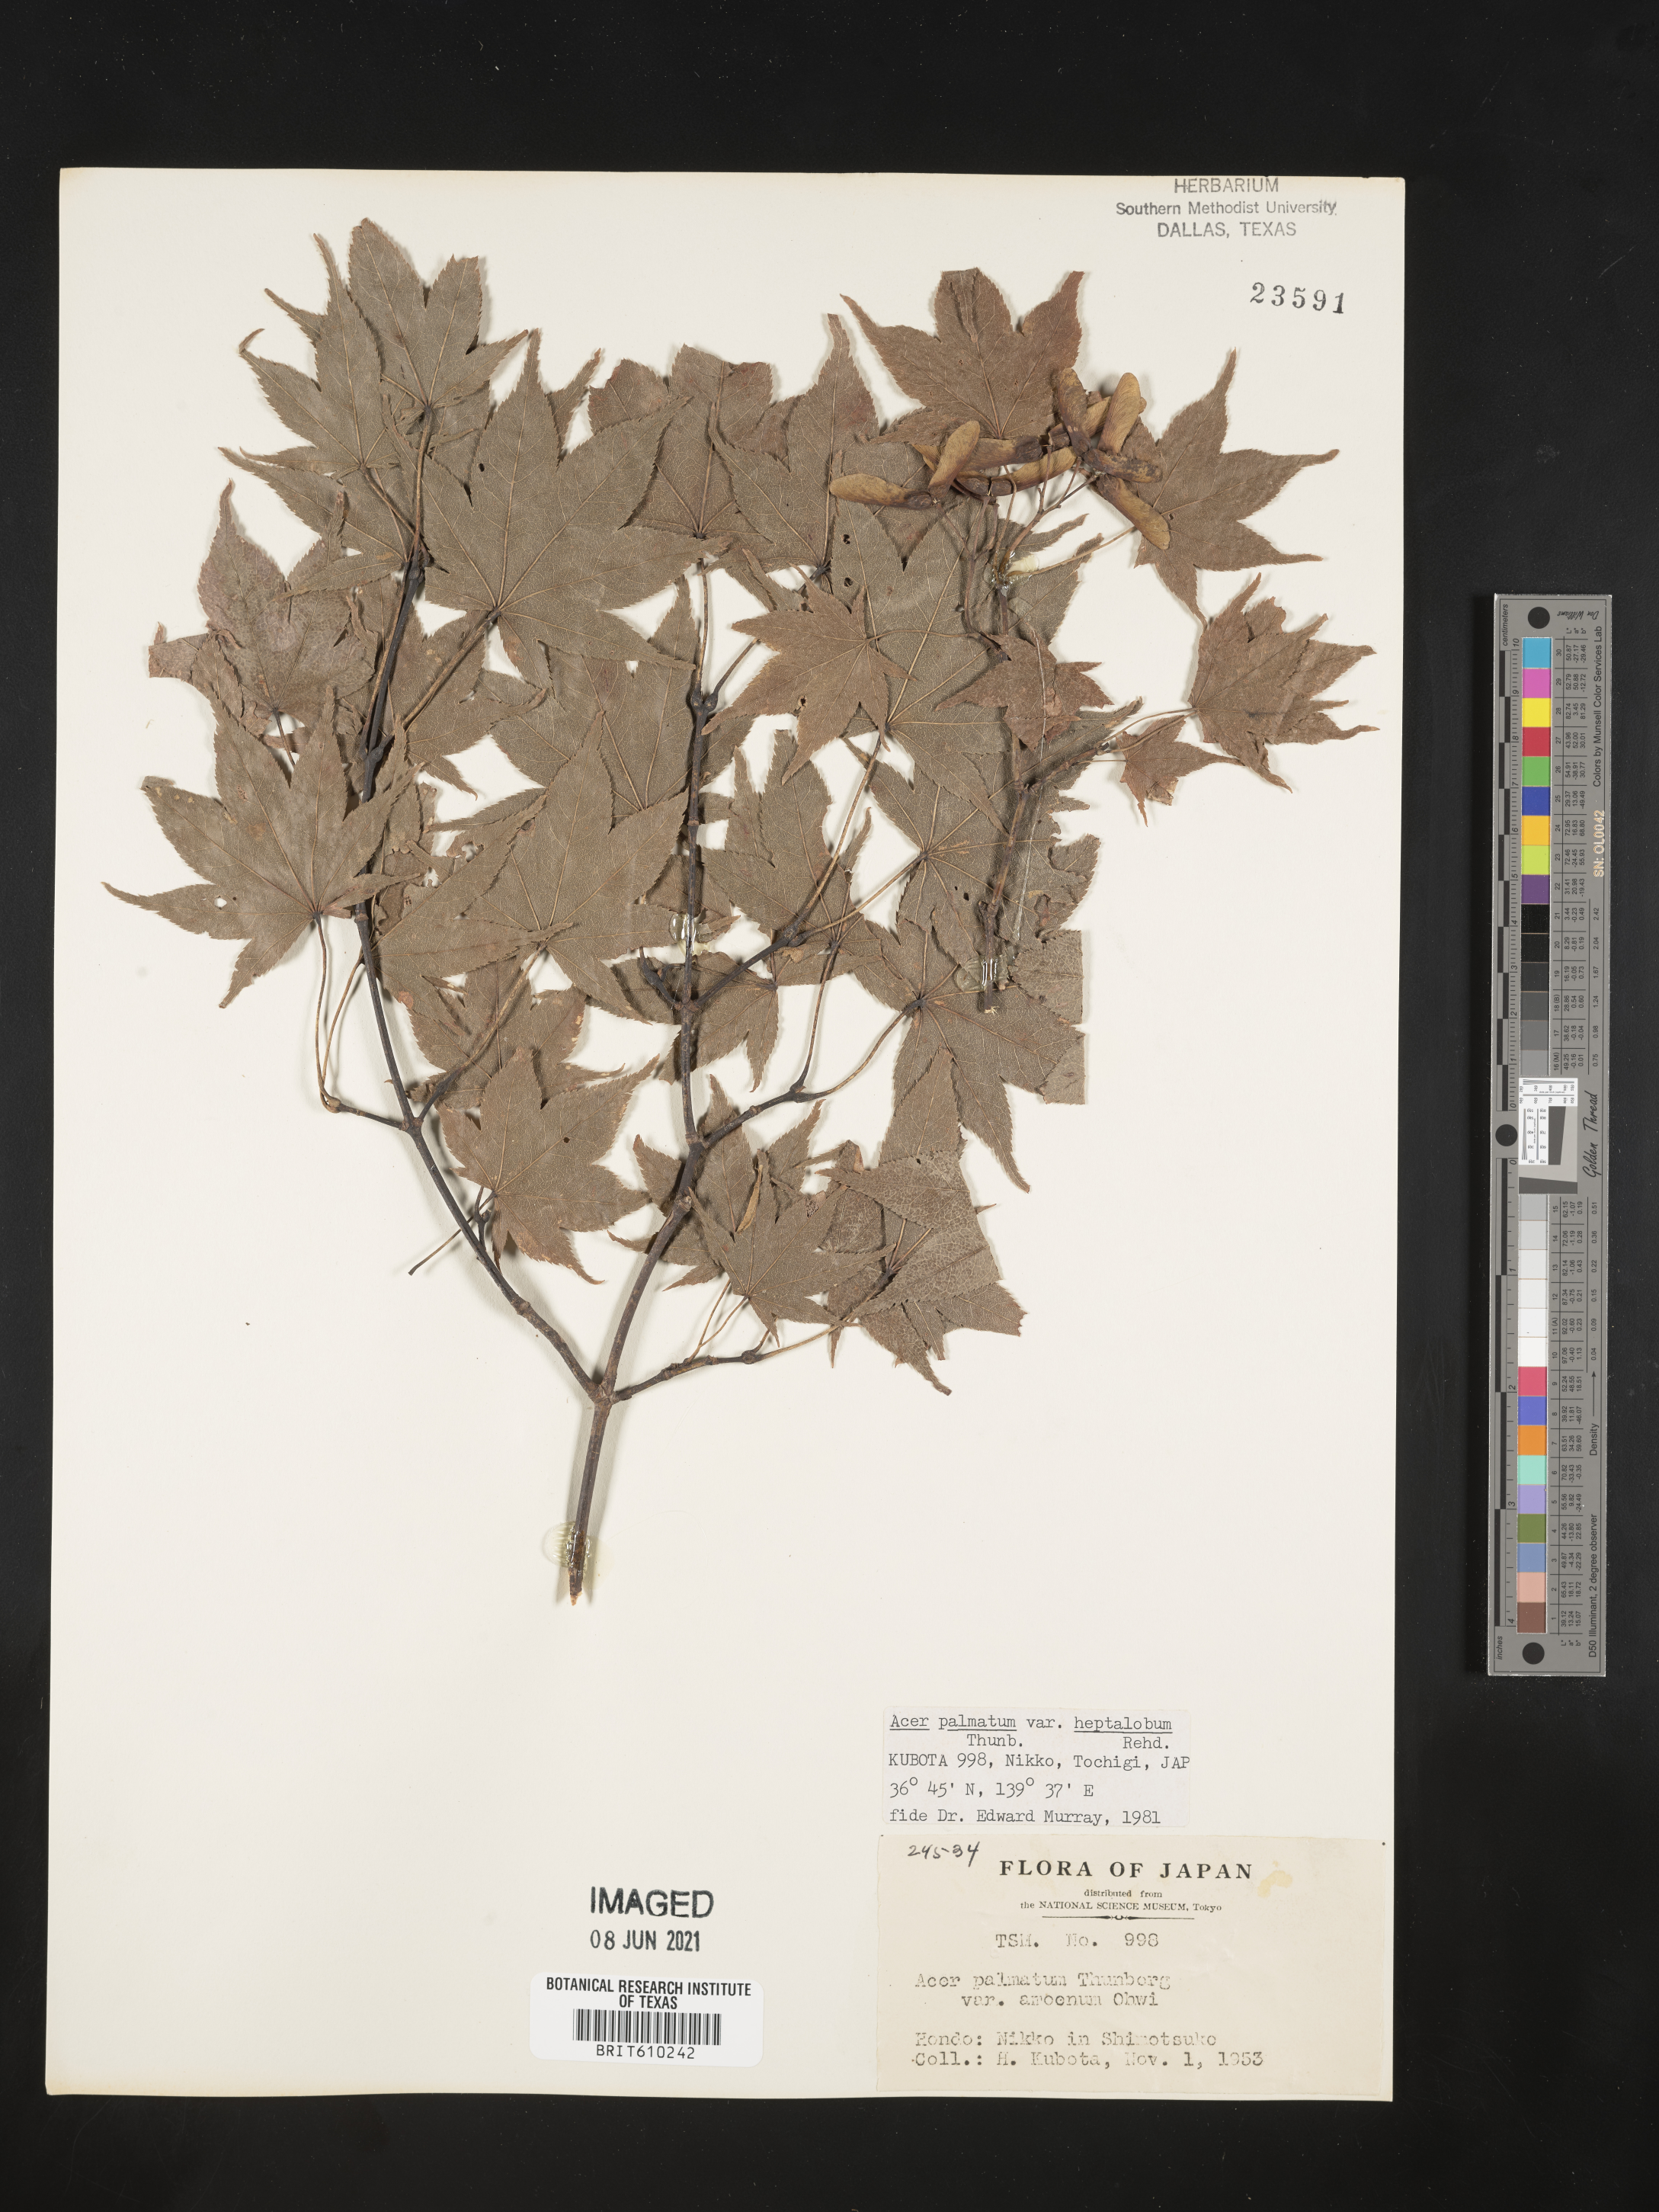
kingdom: Plantae
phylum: Tracheophyta
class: Magnoliopsida
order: Sapindales
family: Sapindaceae
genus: Acer
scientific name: Acer palmatum
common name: Japanese maple
